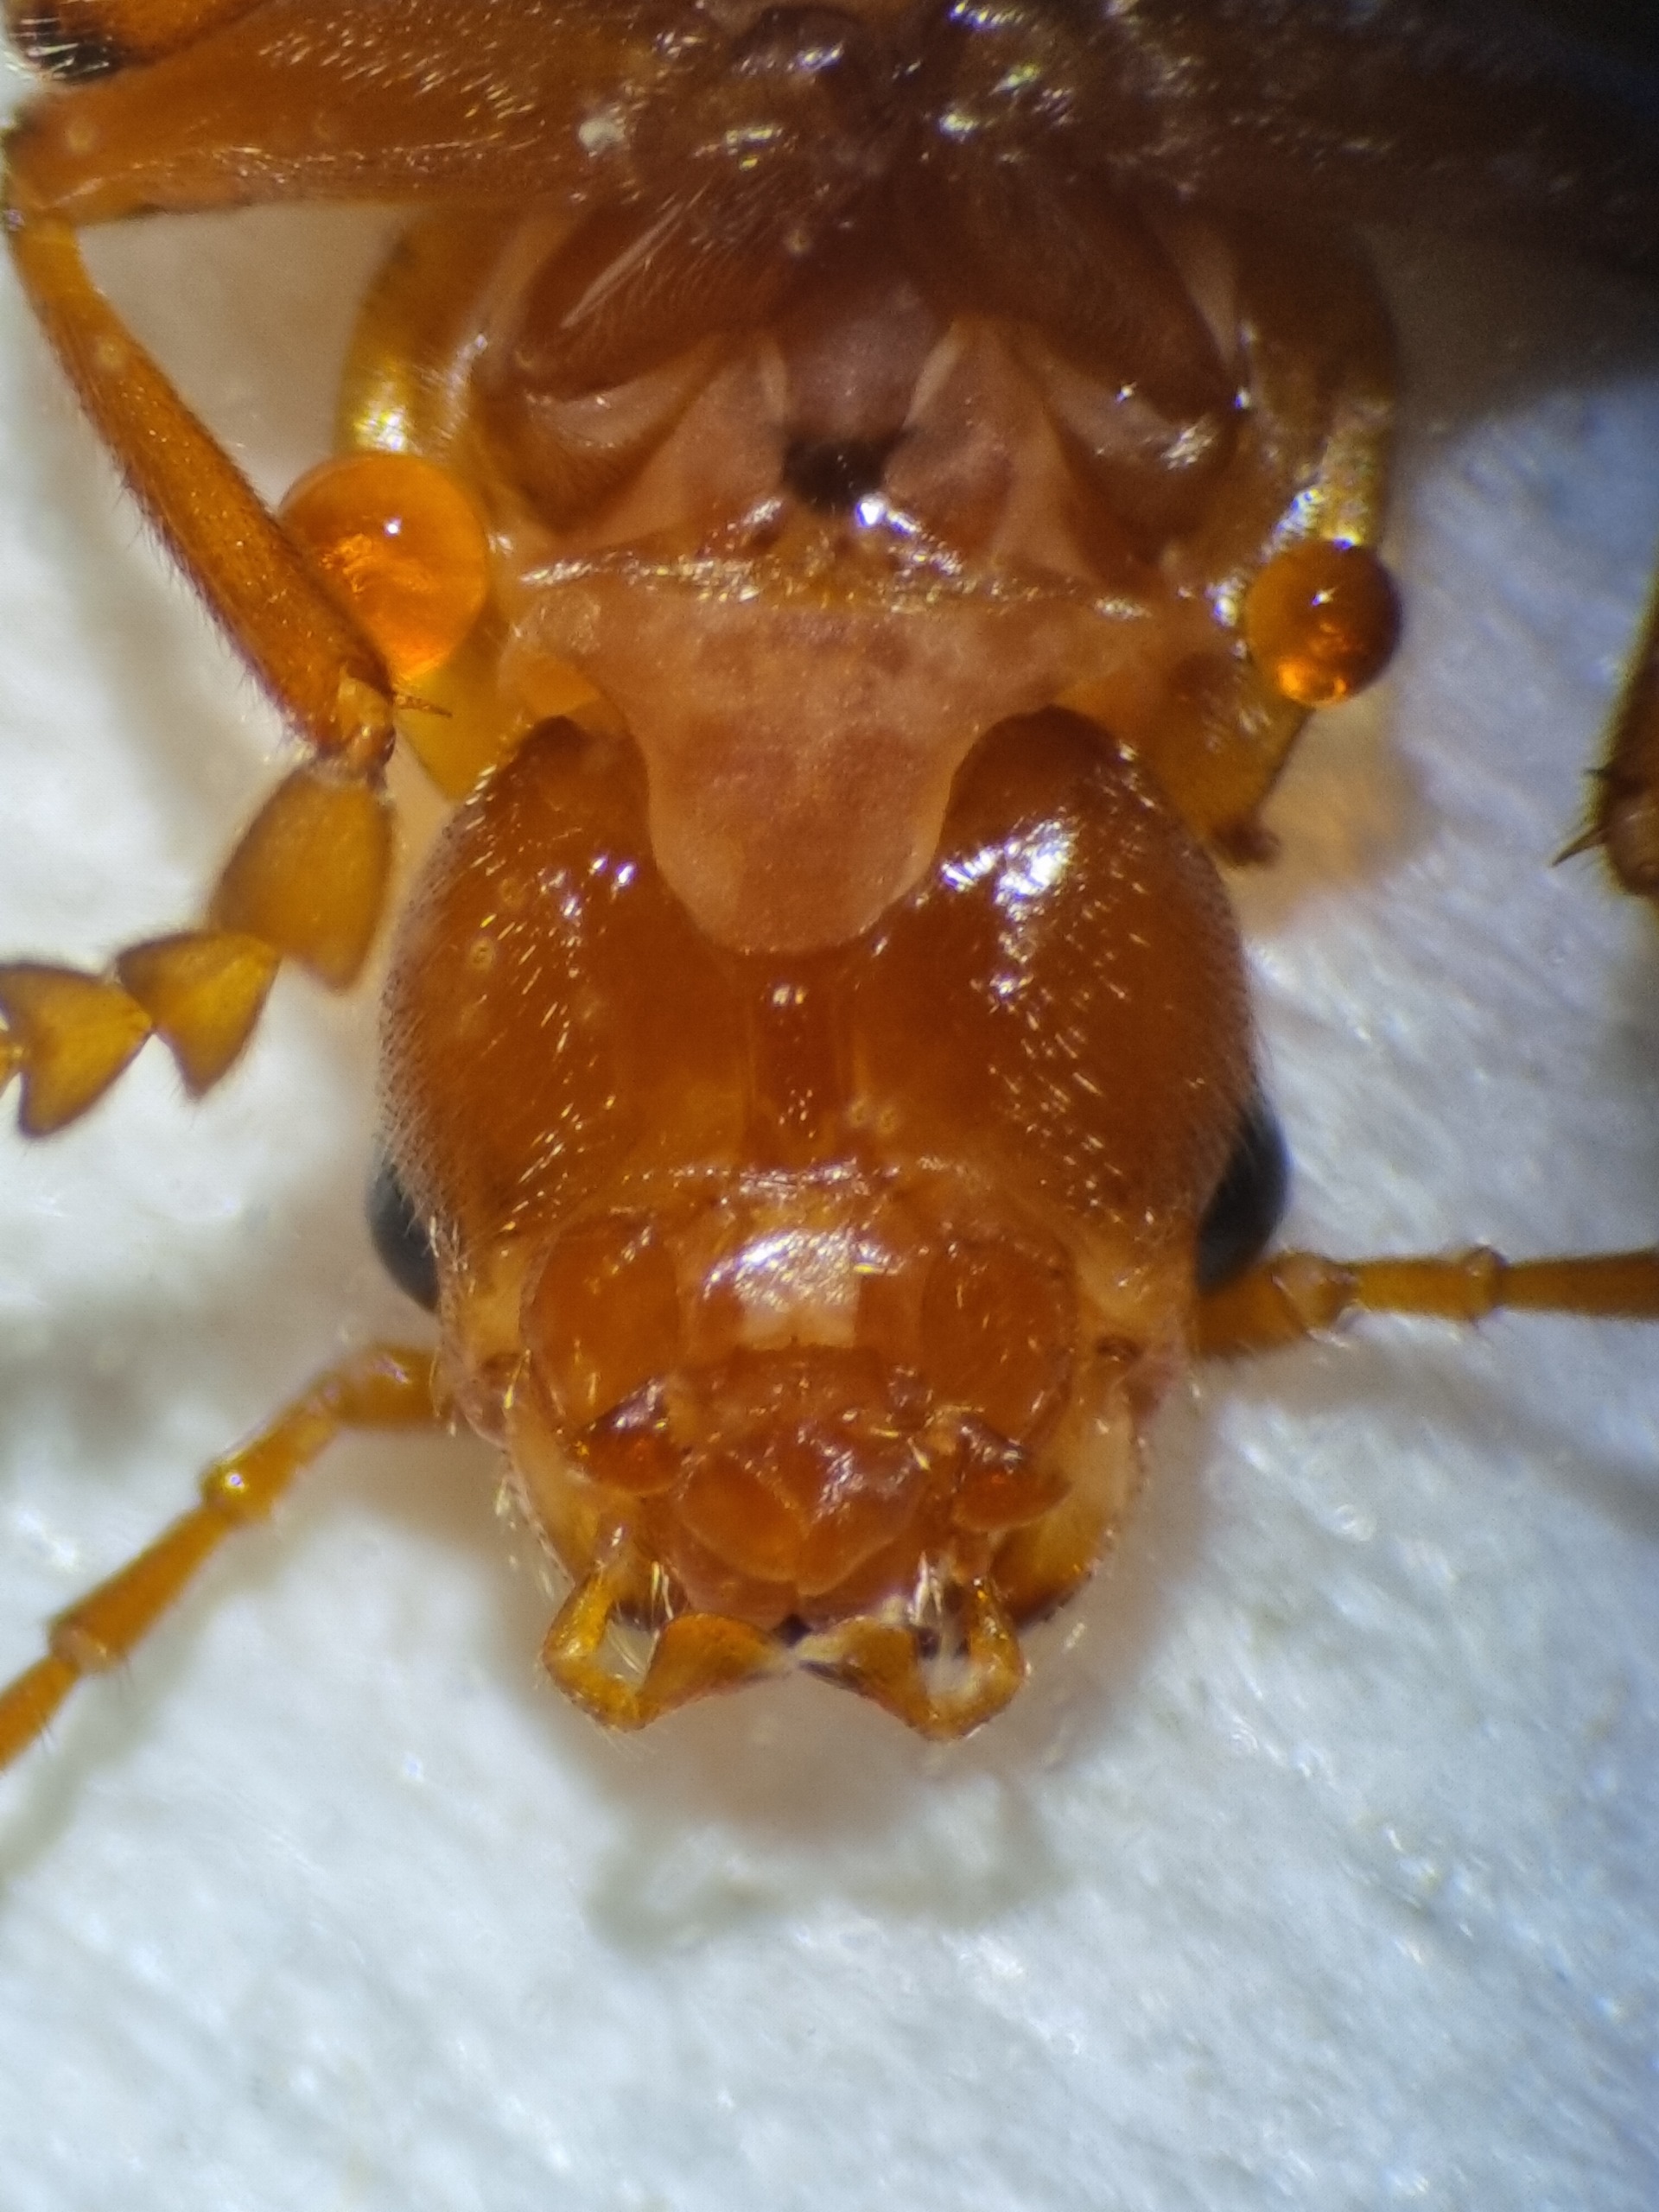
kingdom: Animalia
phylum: Arthropoda
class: Insecta
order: Coleoptera
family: Cantharidae
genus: Cantharis
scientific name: Cantharis
